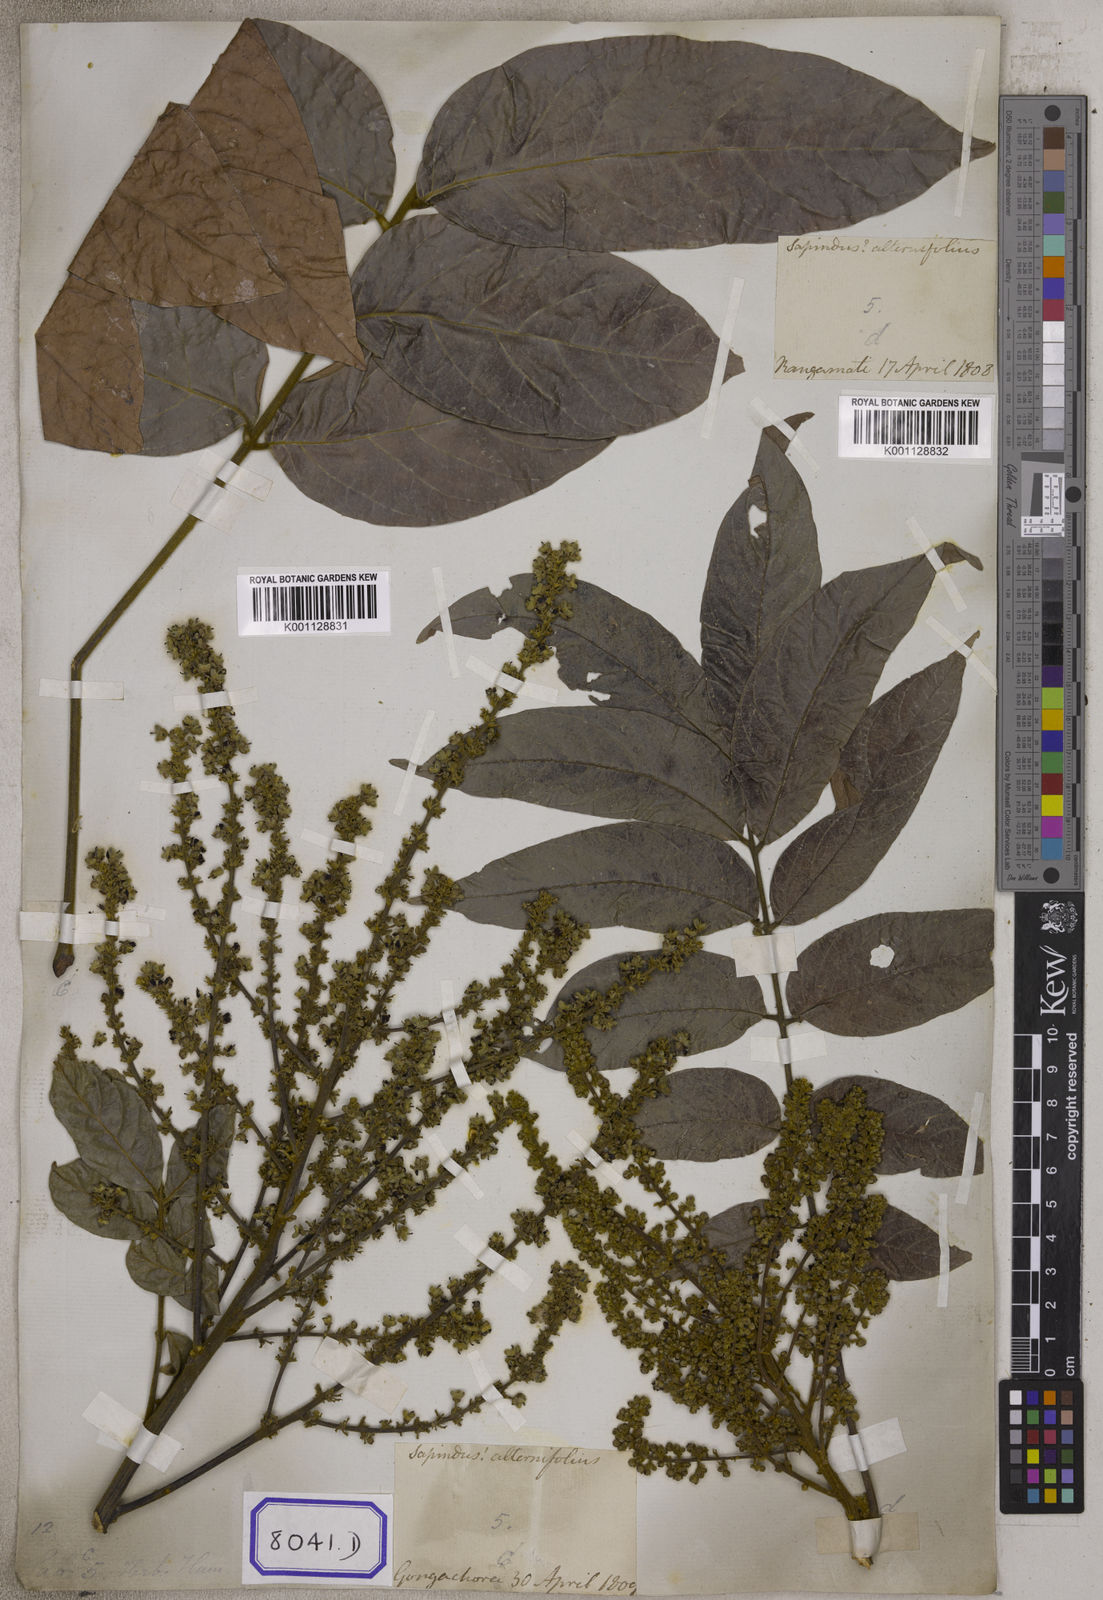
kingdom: Plantae
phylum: Tracheophyta
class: Magnoliopsida
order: Sapindales
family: Sapindaceae
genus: Lepisanthes
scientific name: Lepisanthes rubiginosa
